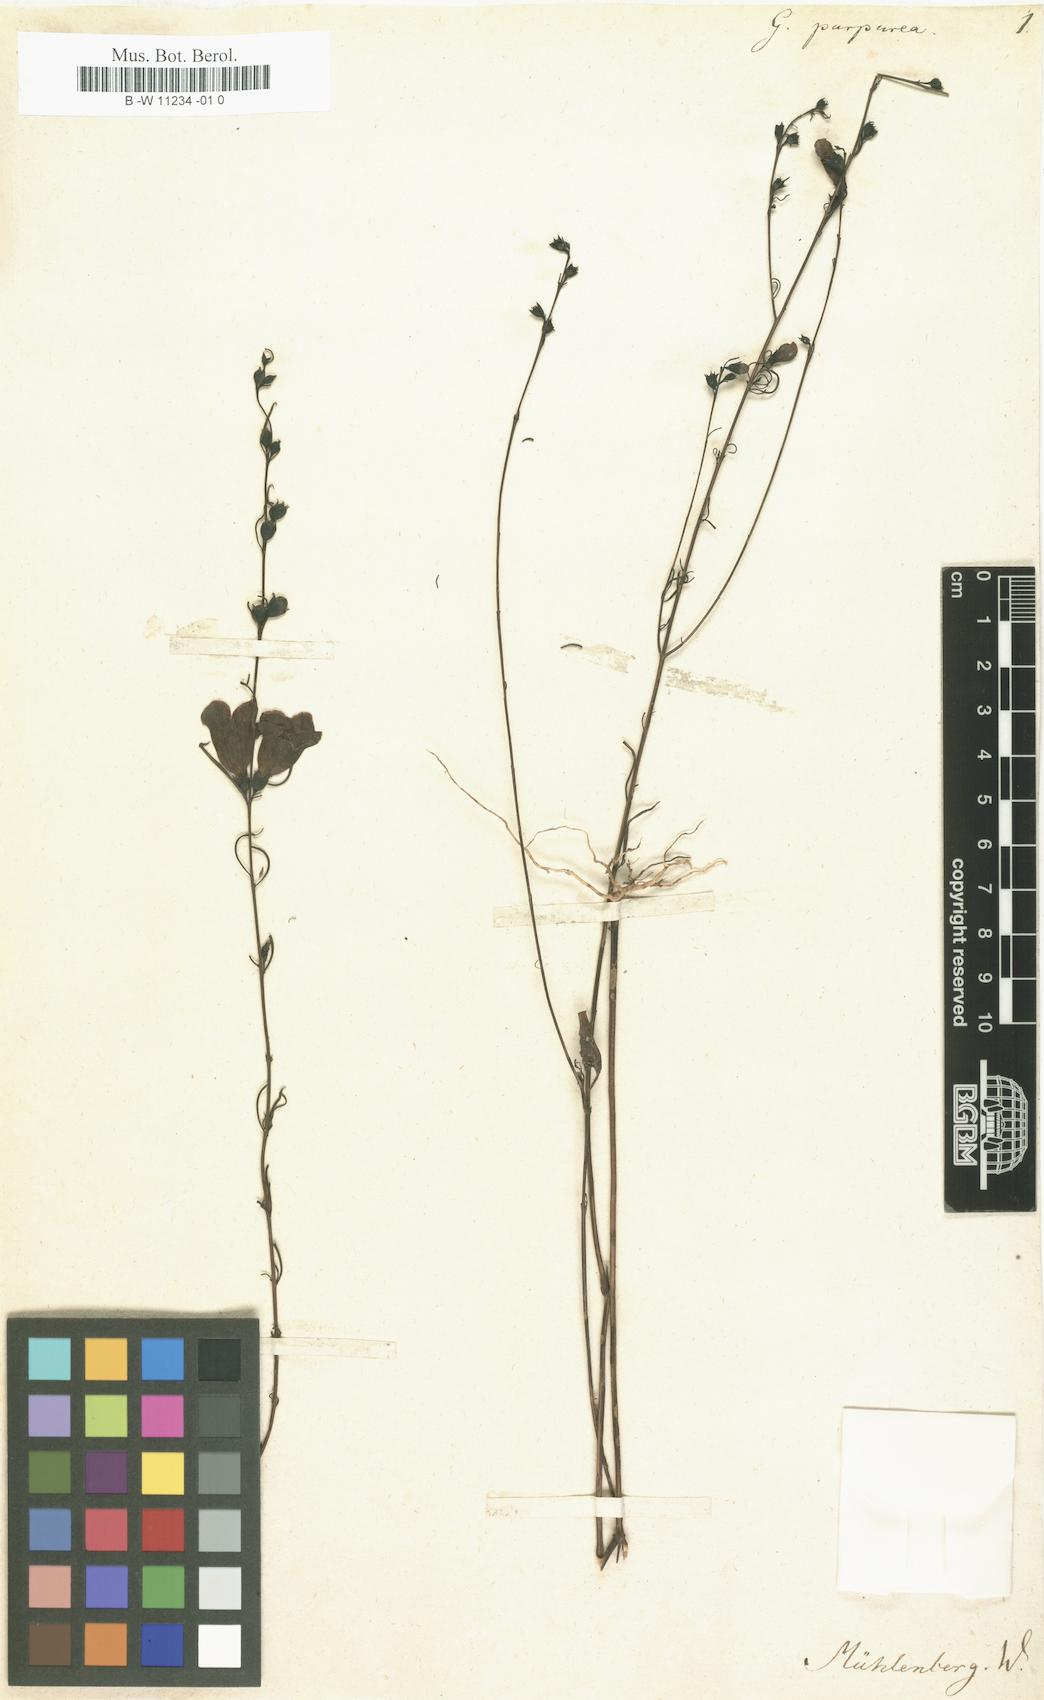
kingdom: Plantae
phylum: Tracheophyta
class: Magnoliopsida
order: Lamiales
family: Orobanchaceae
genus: Agalinis
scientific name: Agalinis
